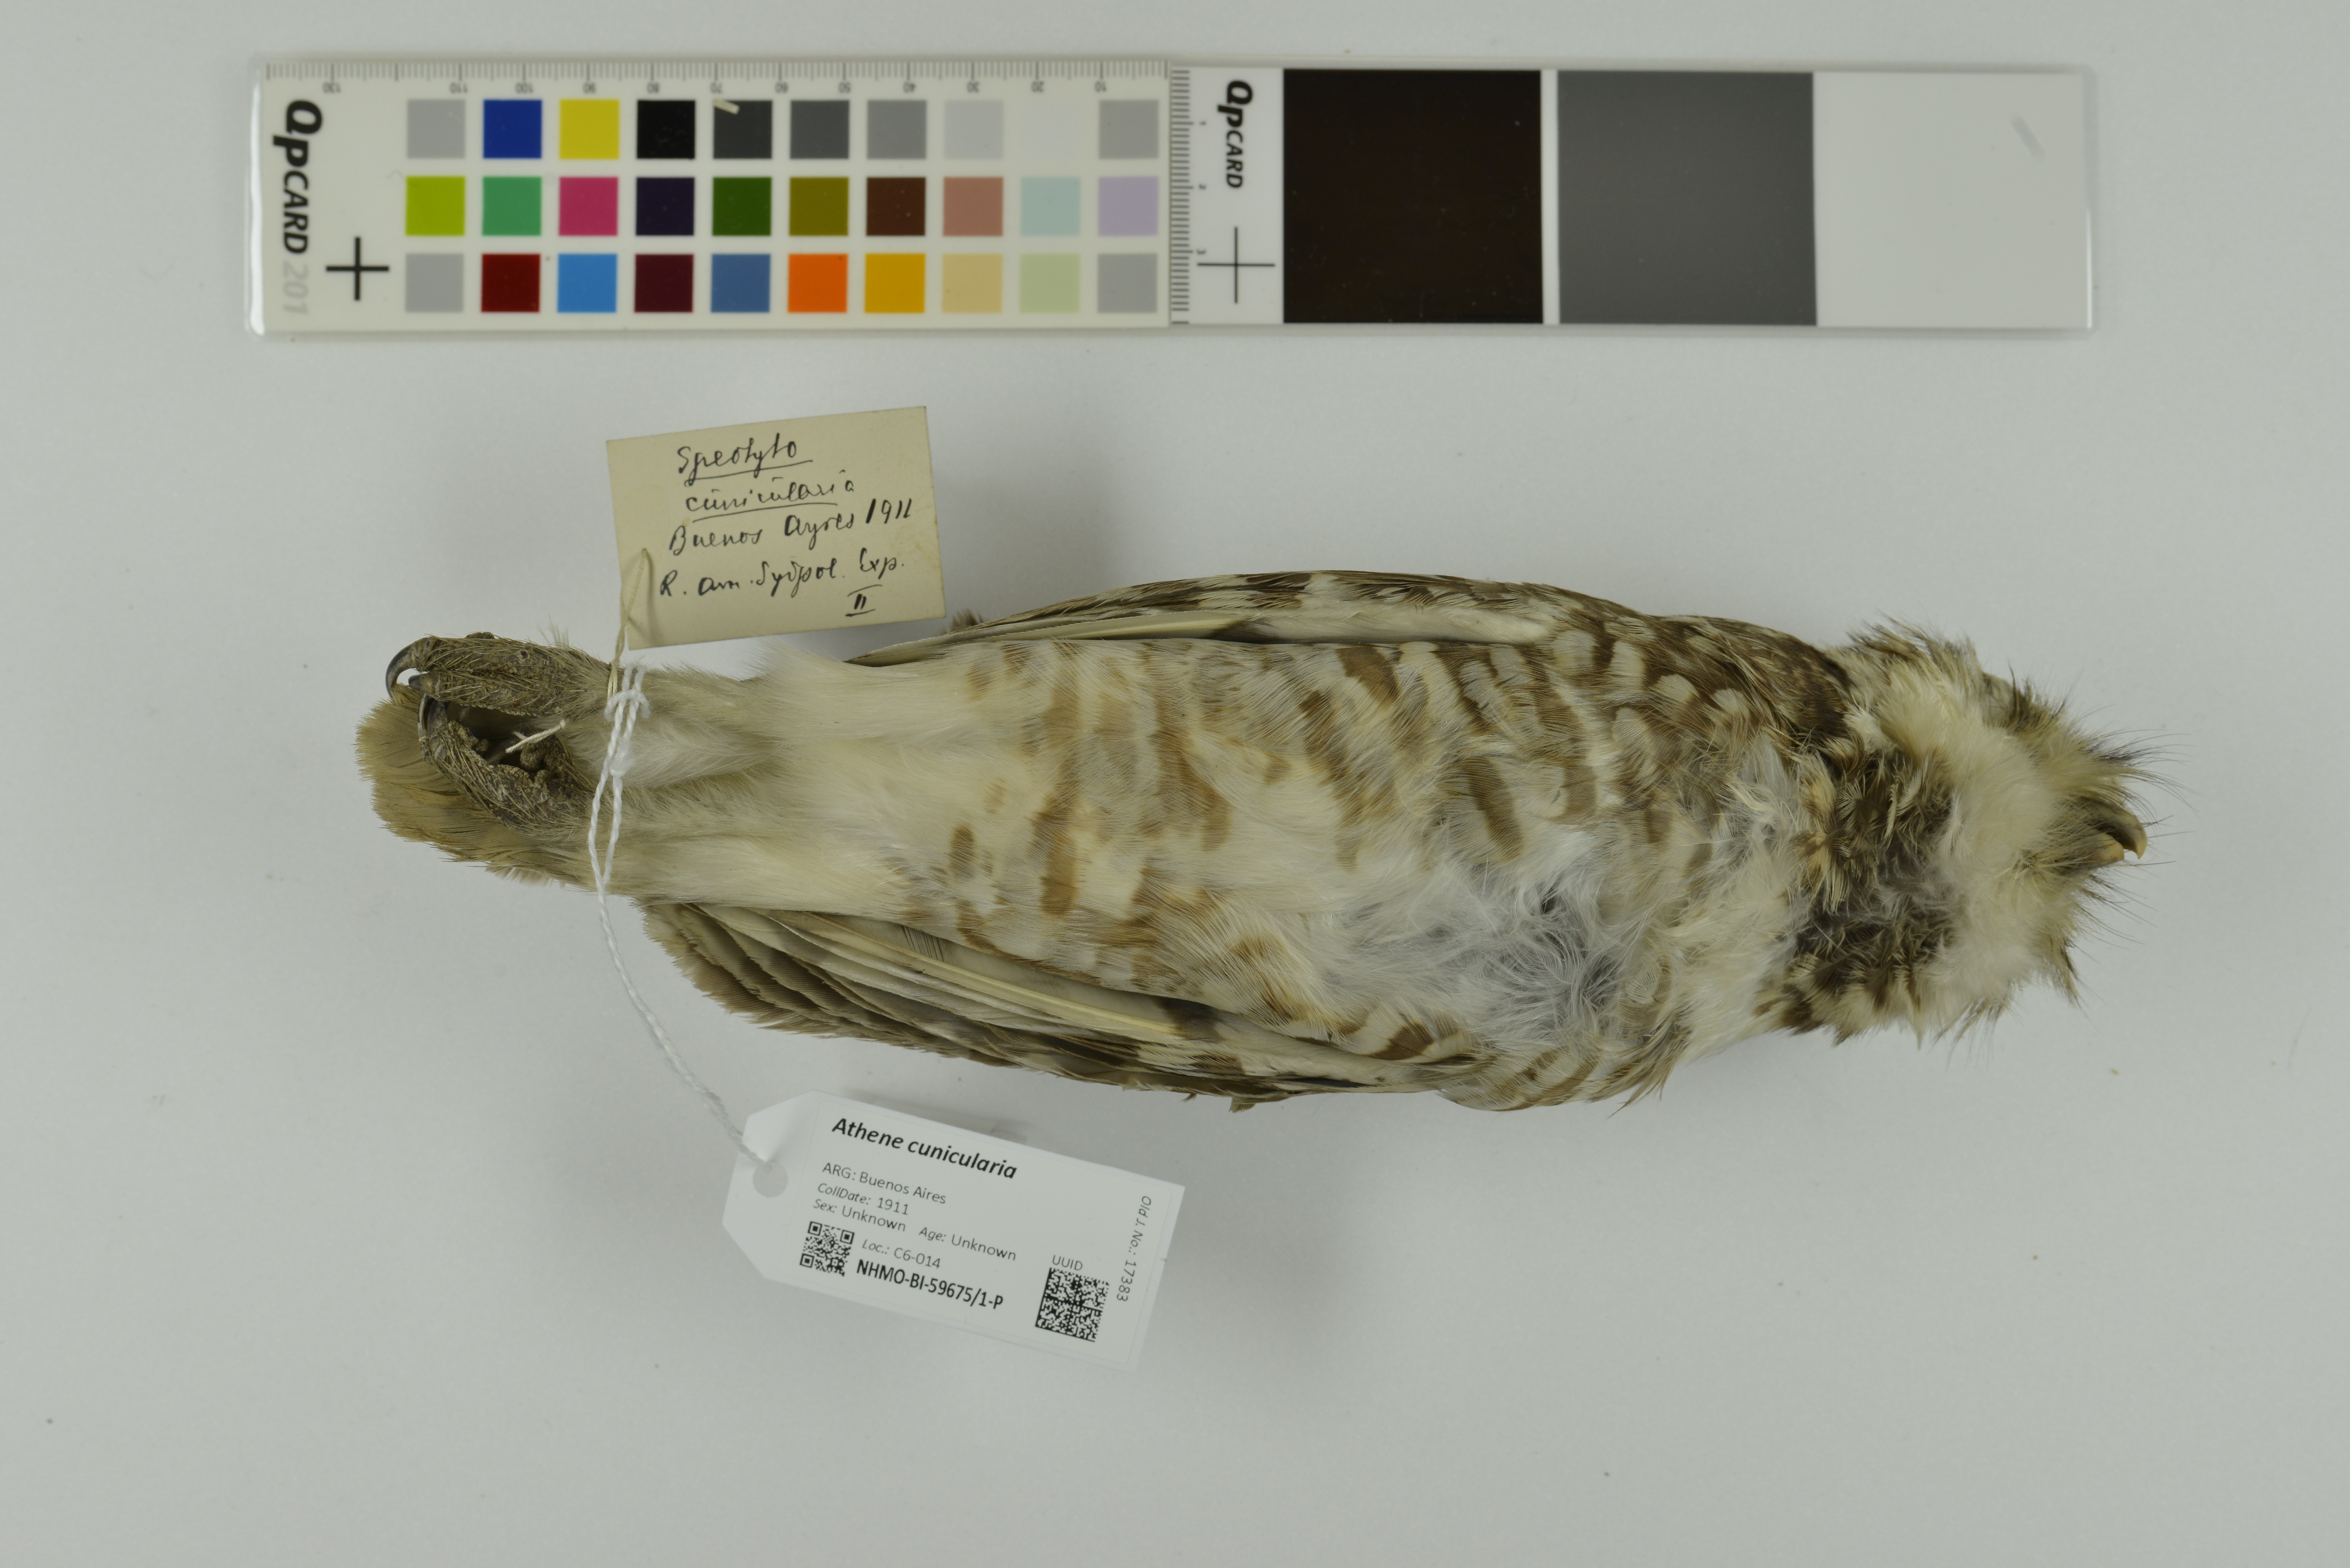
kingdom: Animalia
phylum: Chordata
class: Aves
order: Strigiformes
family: Strigidae
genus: Athene
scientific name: Athene cunicularia
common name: Burrowing owl
